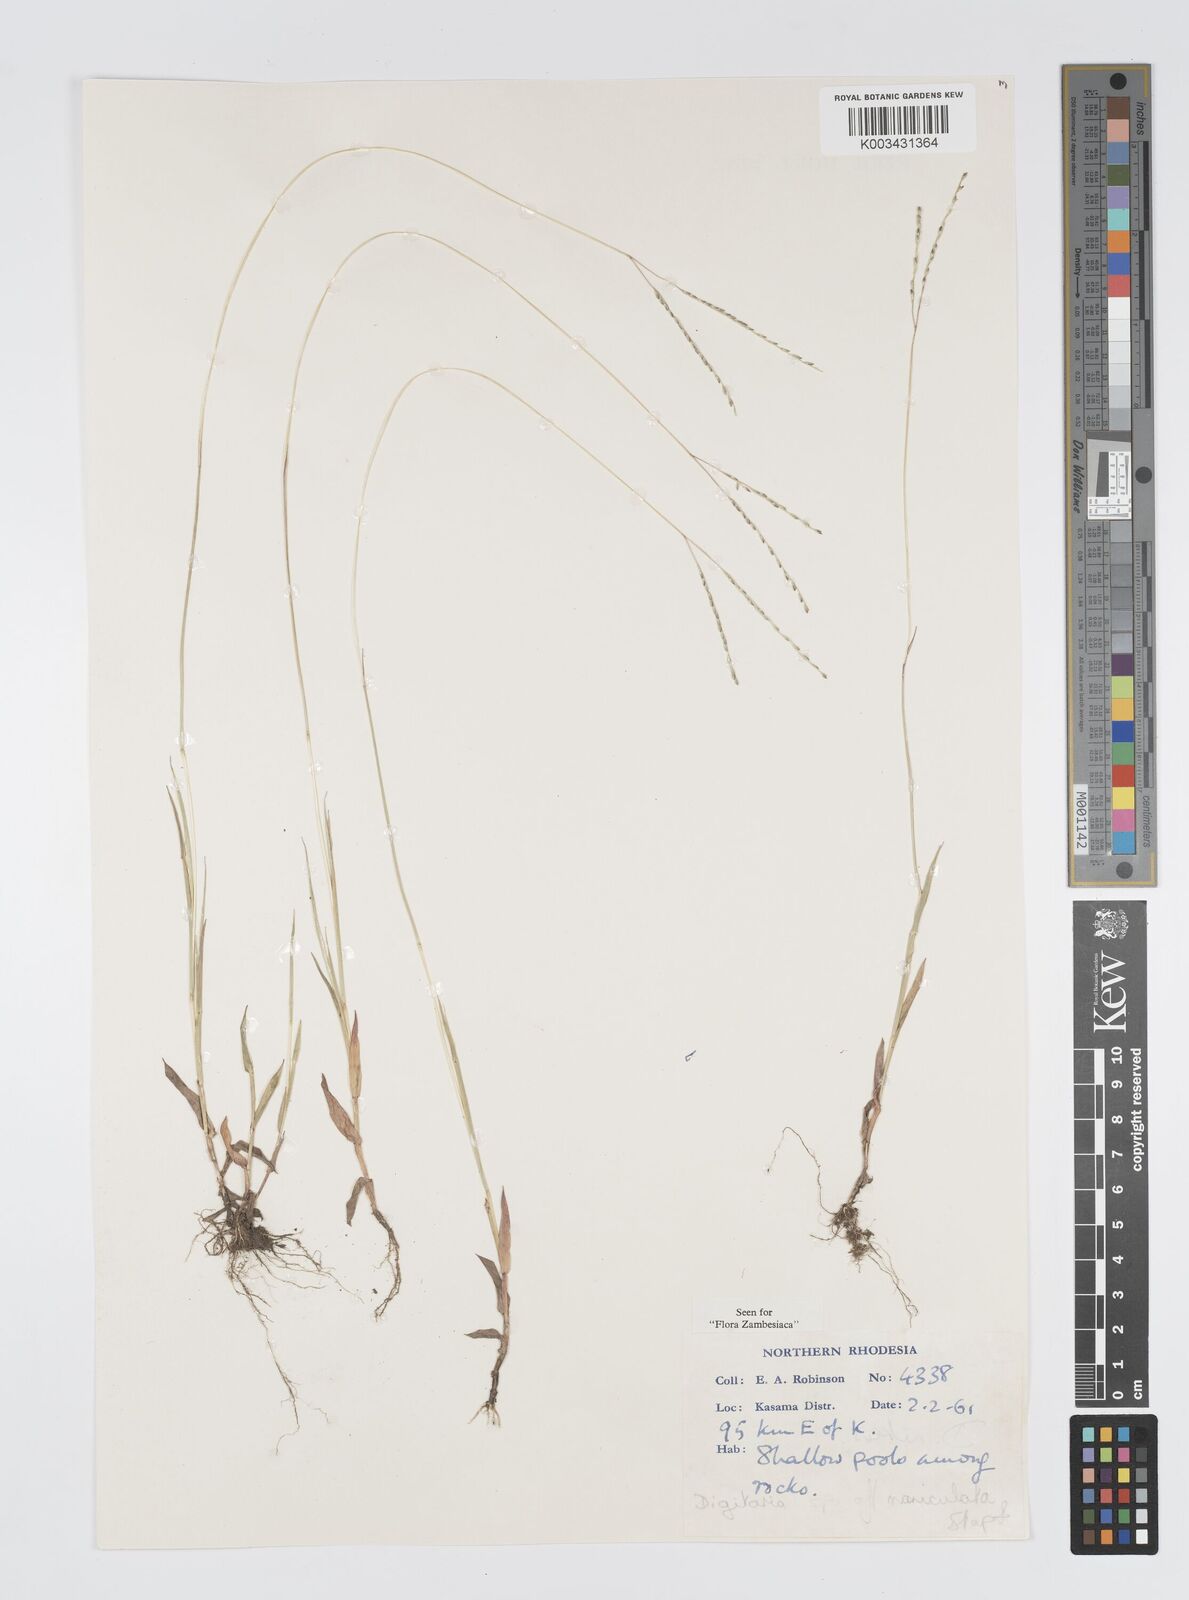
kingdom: Plantae
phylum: Tracheophyta
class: Liliopsida
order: Poales
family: Poaceae
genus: Digitaria
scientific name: Digitaria maniculata
